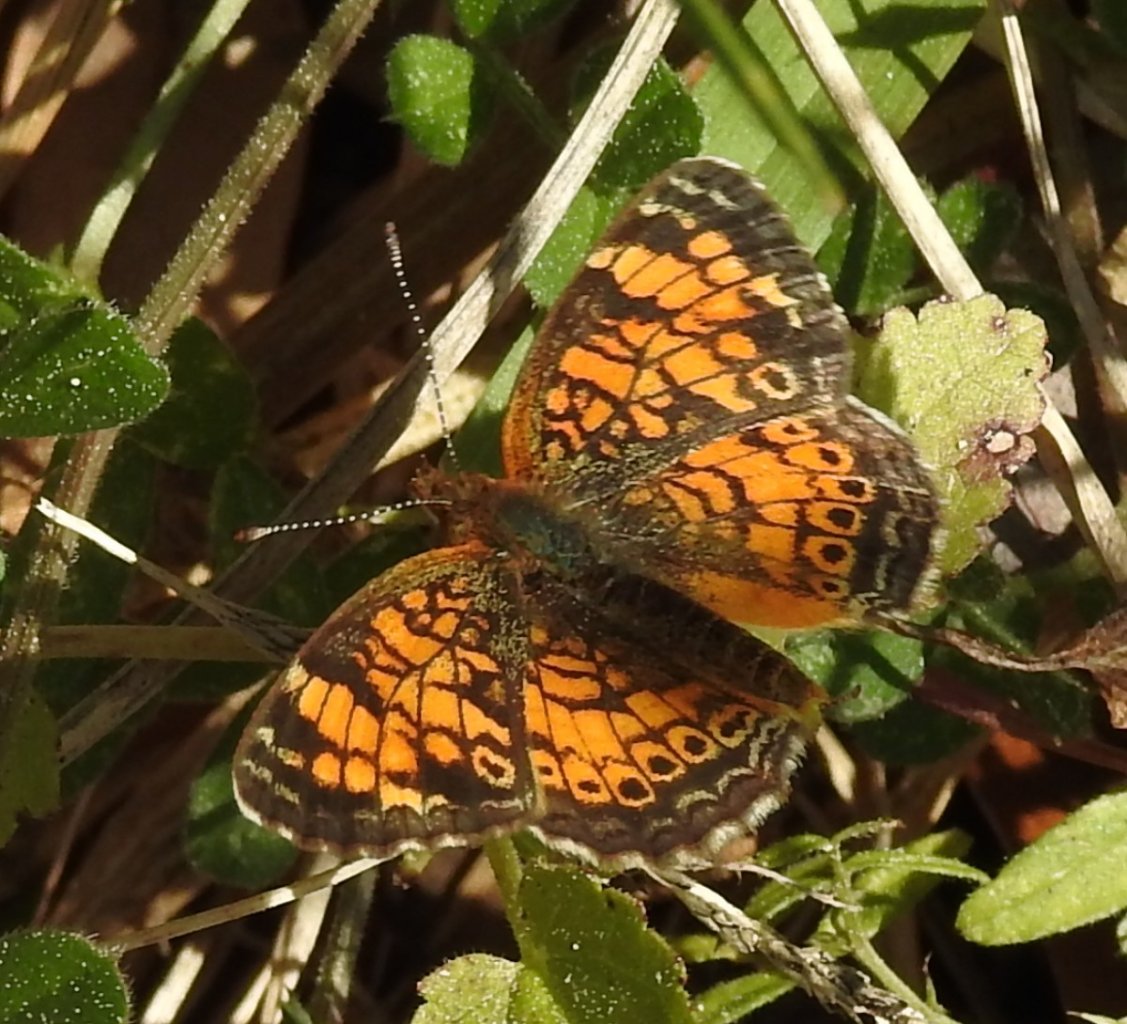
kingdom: Animalia
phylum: Arthropoda
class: Insecta
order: Lepidoptera
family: Nymphalidae
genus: Phyciodes
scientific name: Phyciodes tharos
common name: Pearl Crescent
